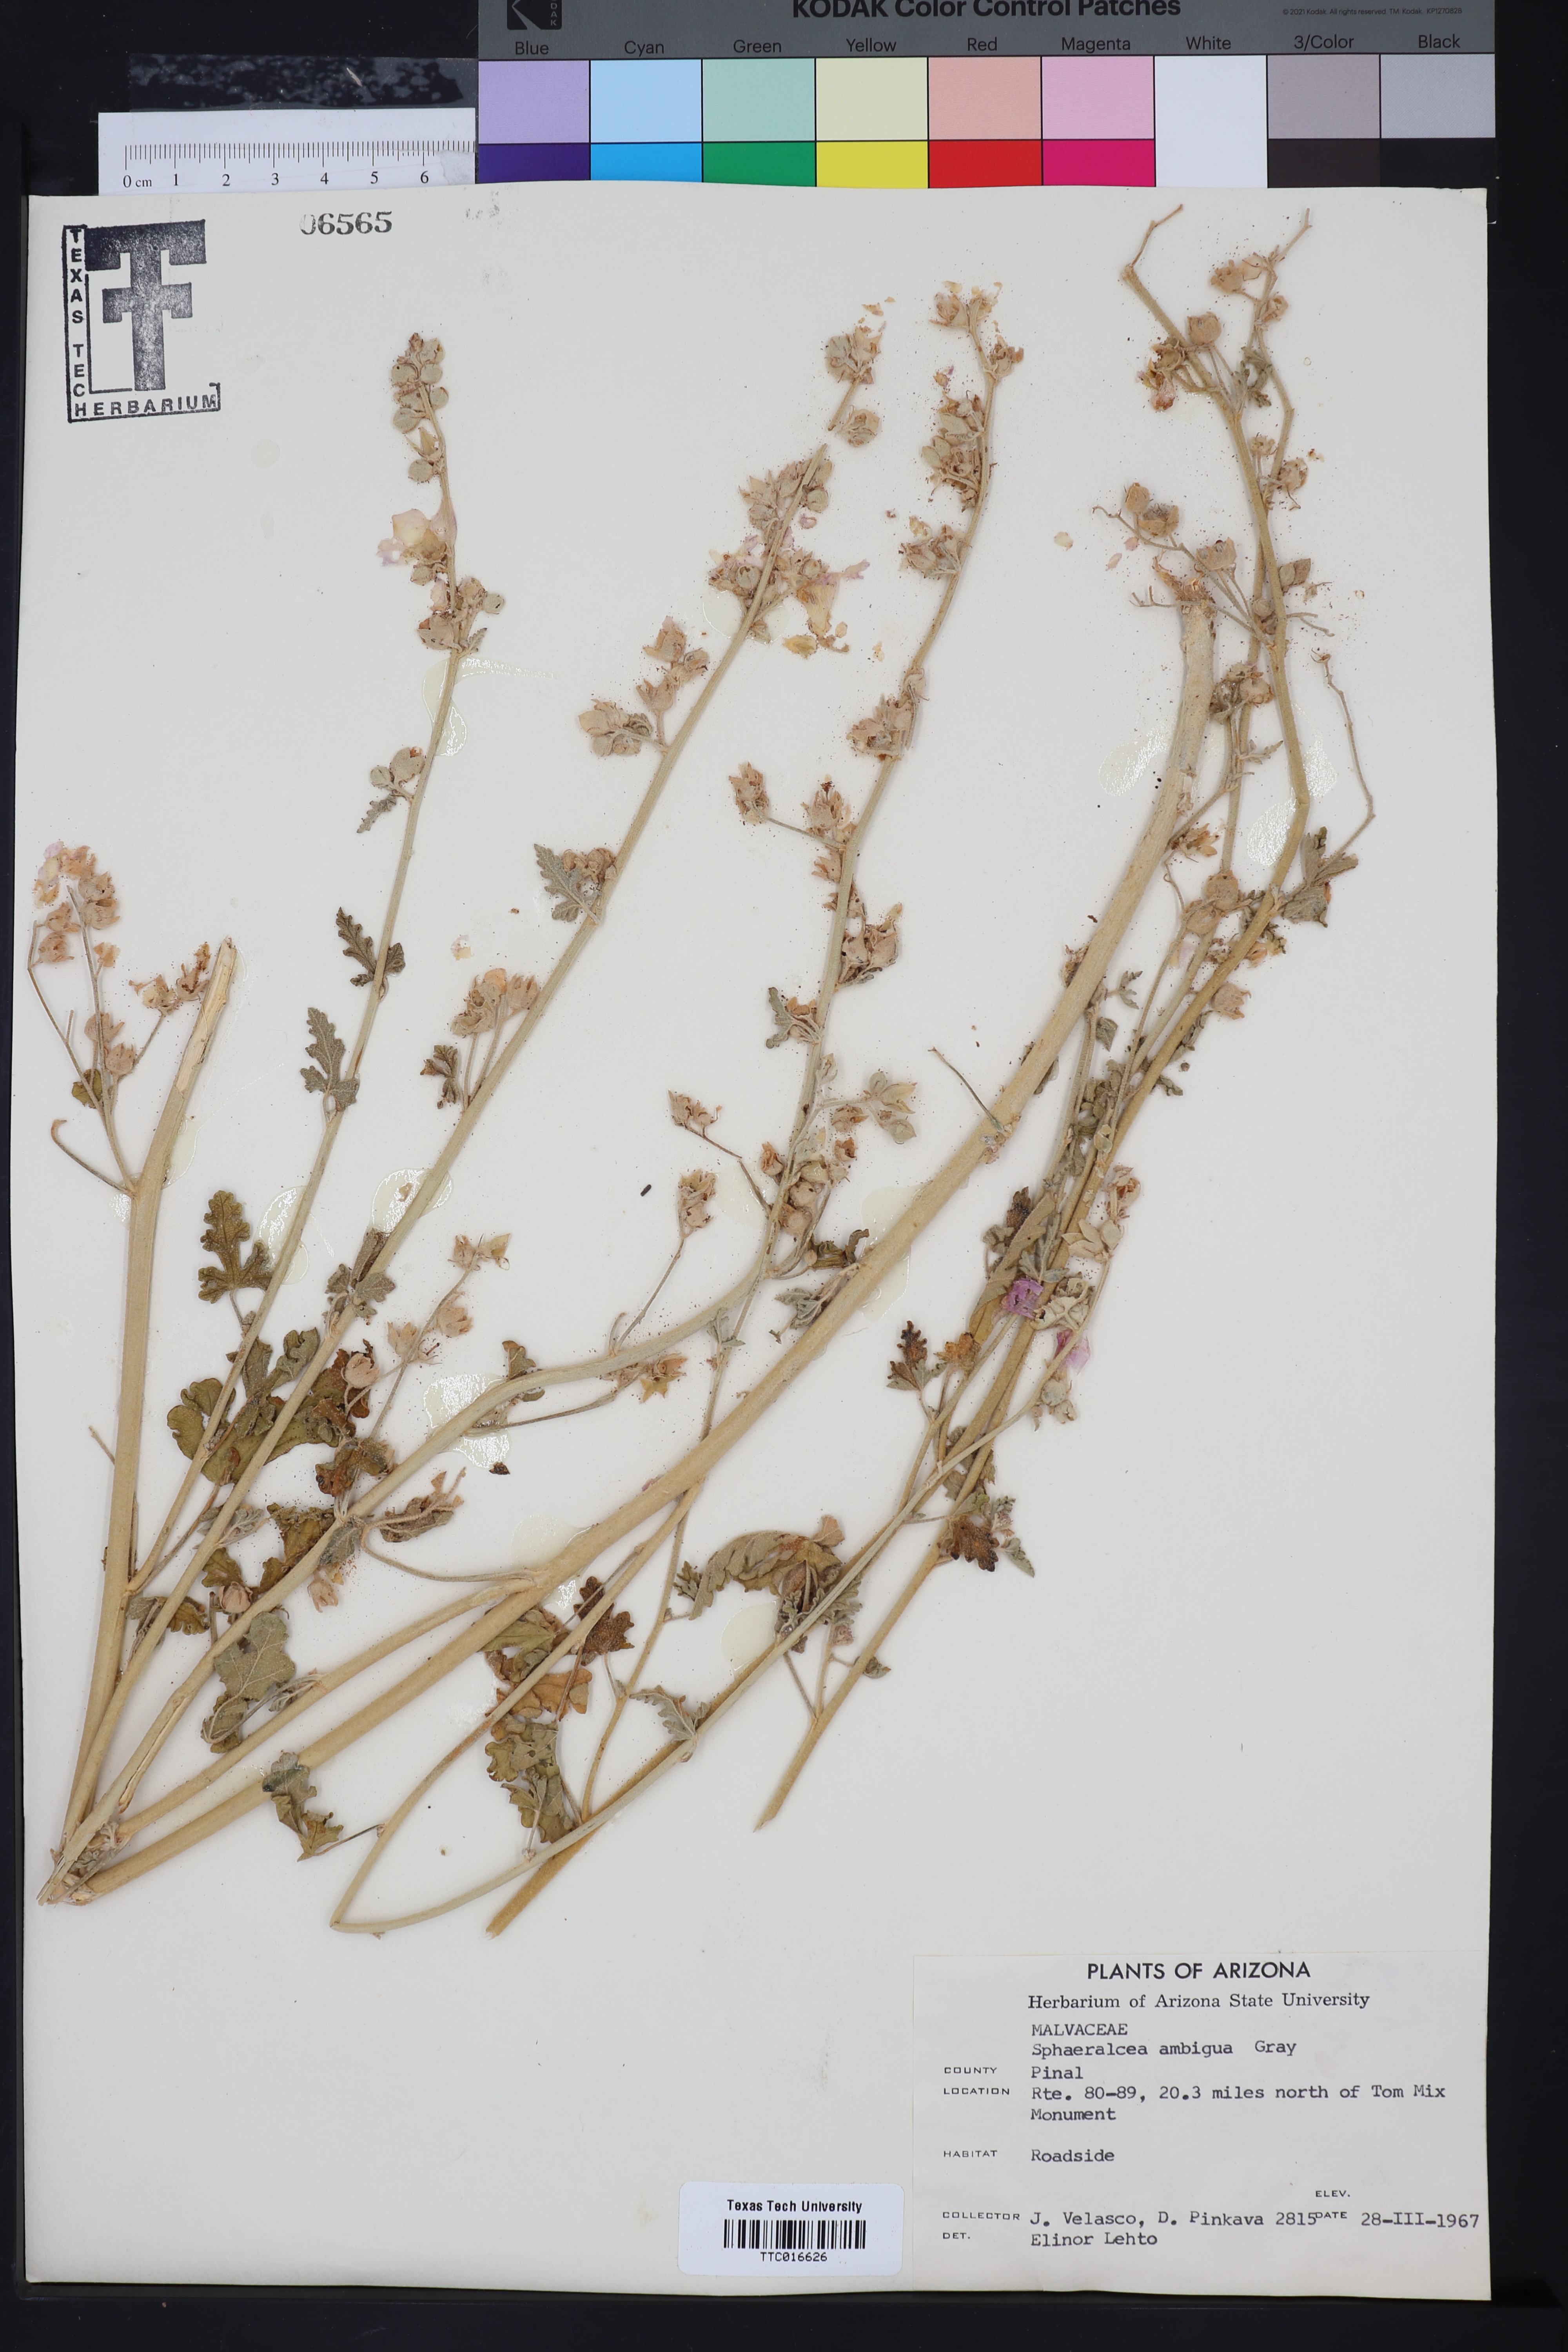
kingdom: Plantae
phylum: Tracheophyta
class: Magnoliopsida
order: Malvales
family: Malvaceae
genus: Sphaeralcea
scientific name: Sphaeralcea ambigua
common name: Apricot globe-mallow
